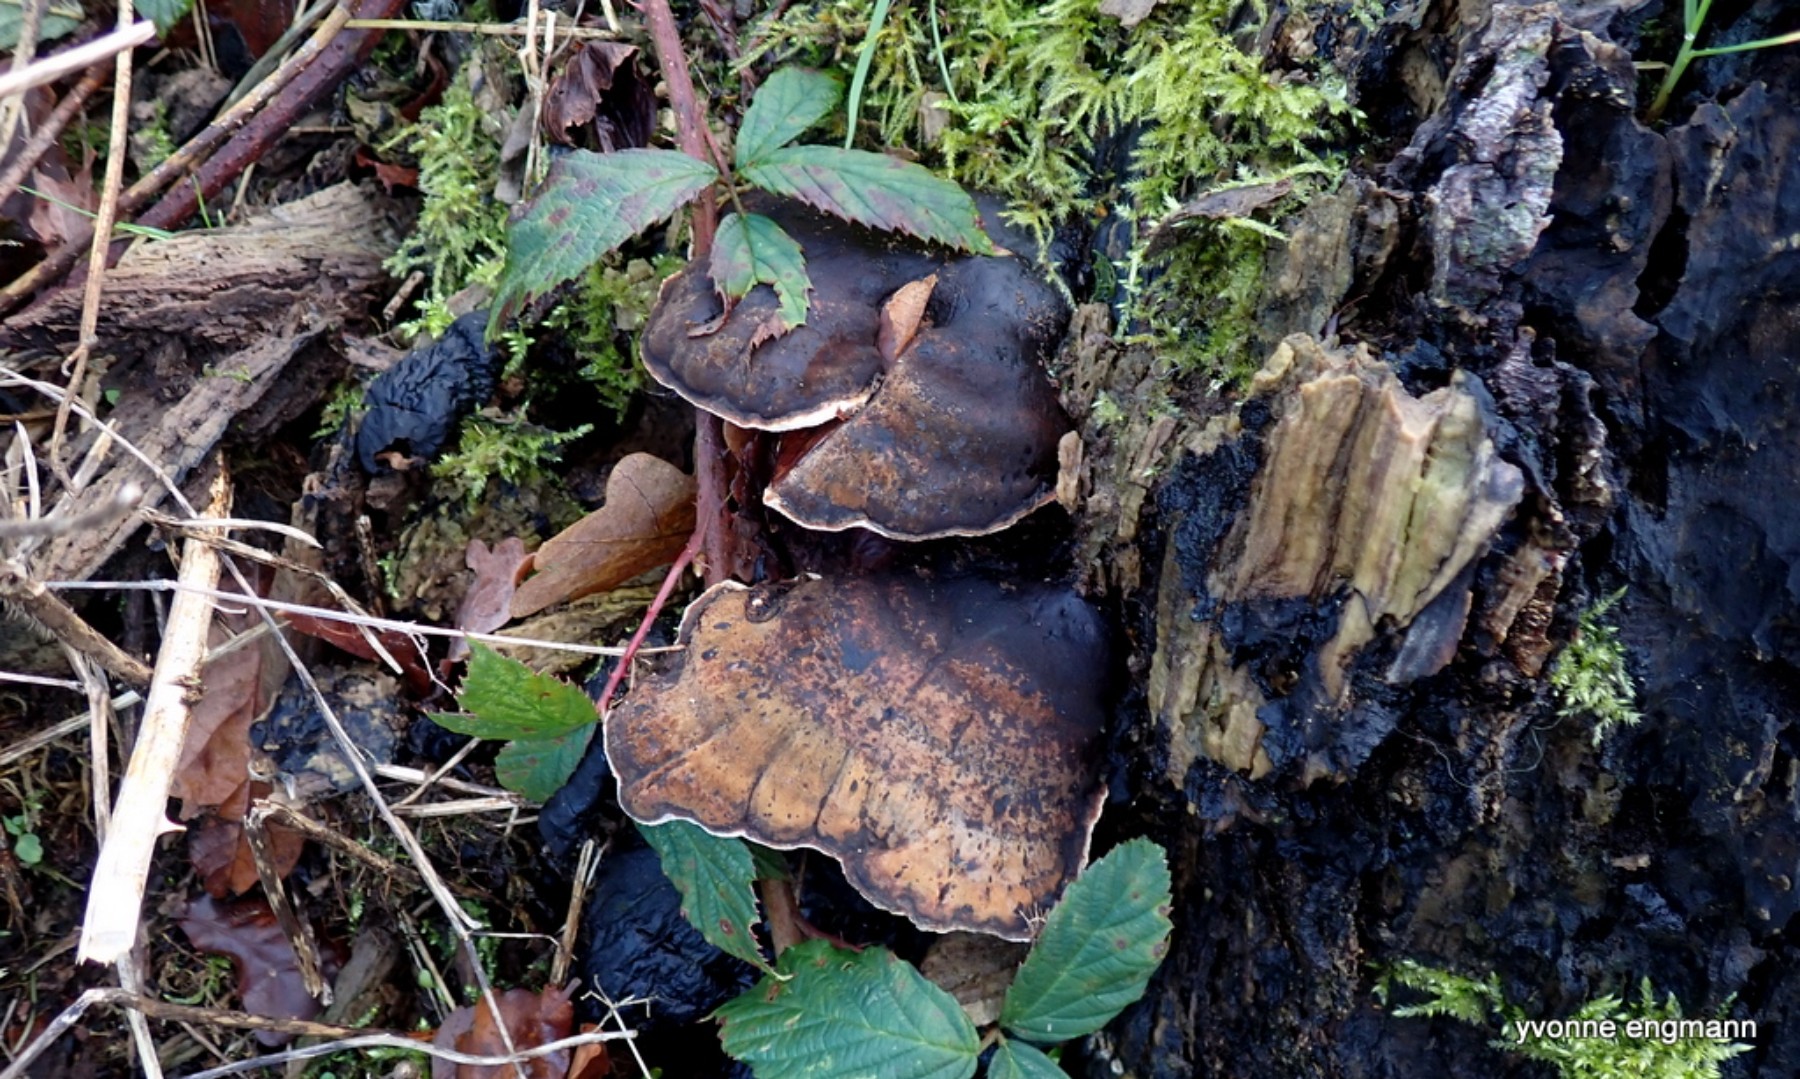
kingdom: Fungi
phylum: Basidiomycota
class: Agaricomycetes
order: Polyporales
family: Ischnodermataceae
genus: Ischnoderma
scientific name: Ischnoderma resinosum
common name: løv-tjæreporesvamp
